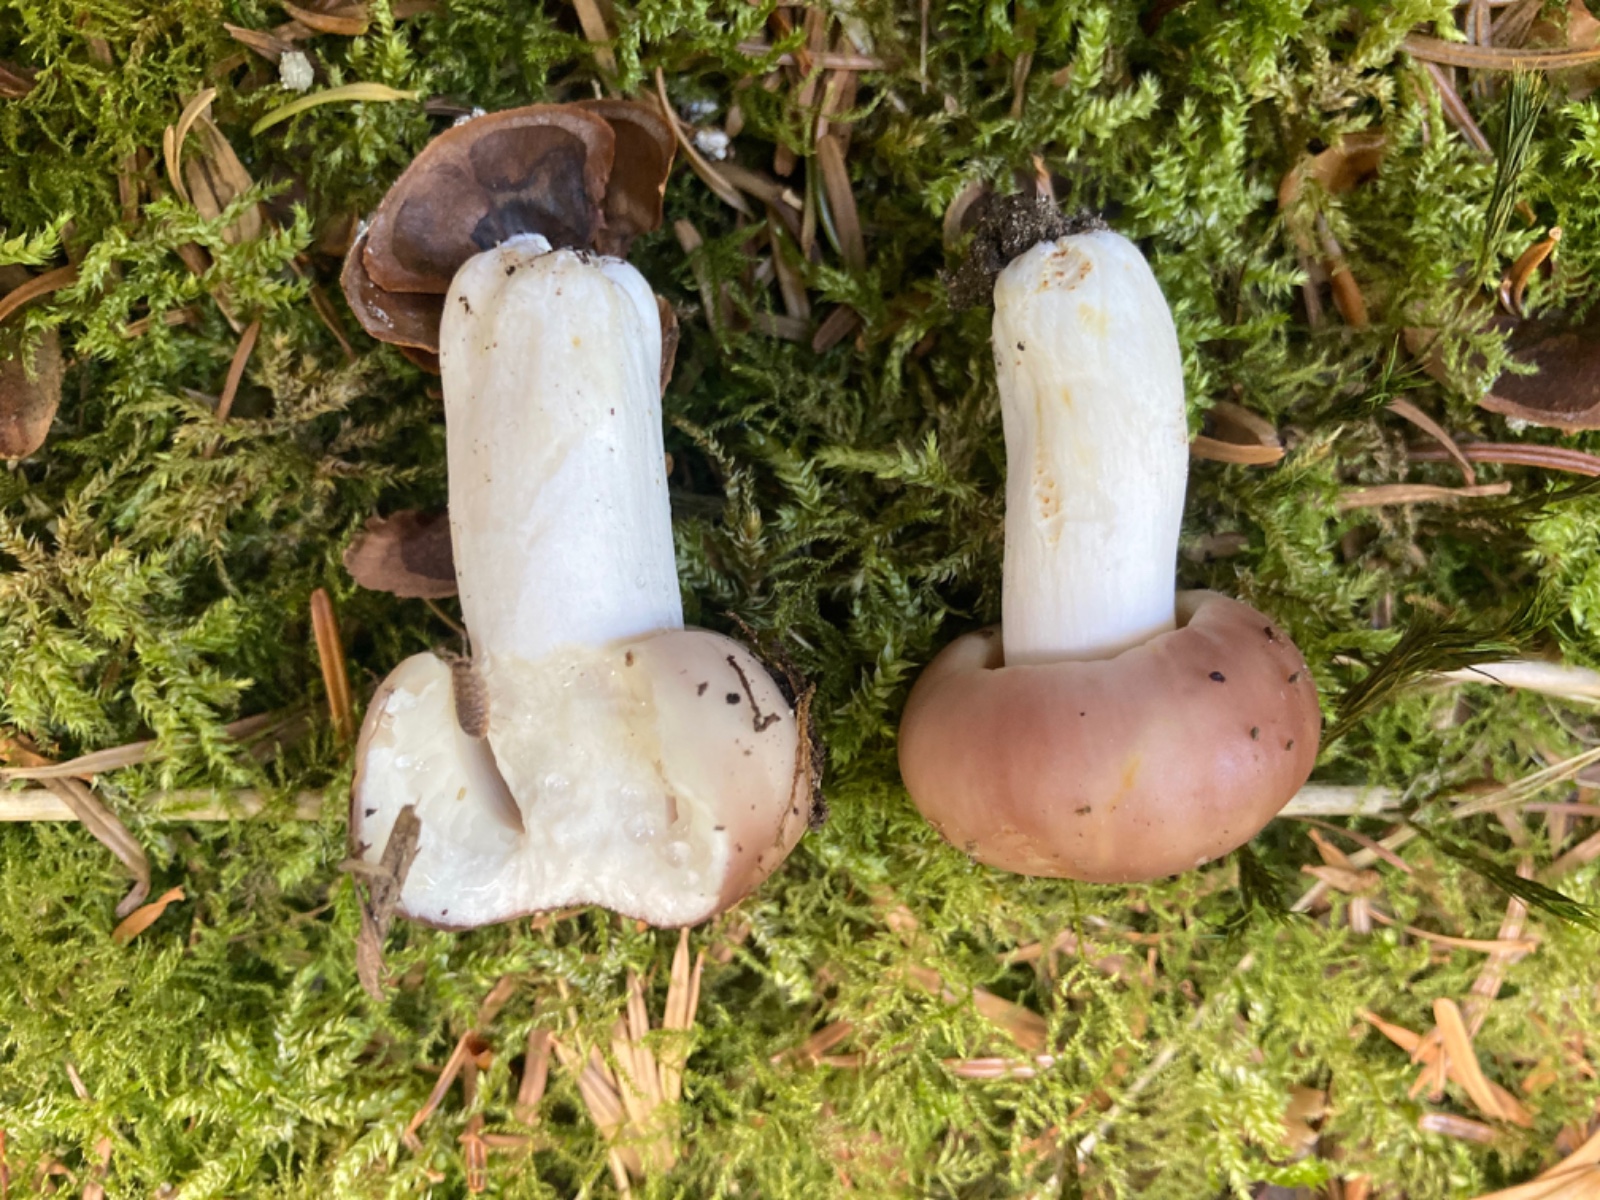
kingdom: Fungi
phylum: Basidiomycota
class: Agaricomycetes
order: Russulales
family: Russulaceae
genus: Russula
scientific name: Russula vesca
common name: spiselig skørhat
